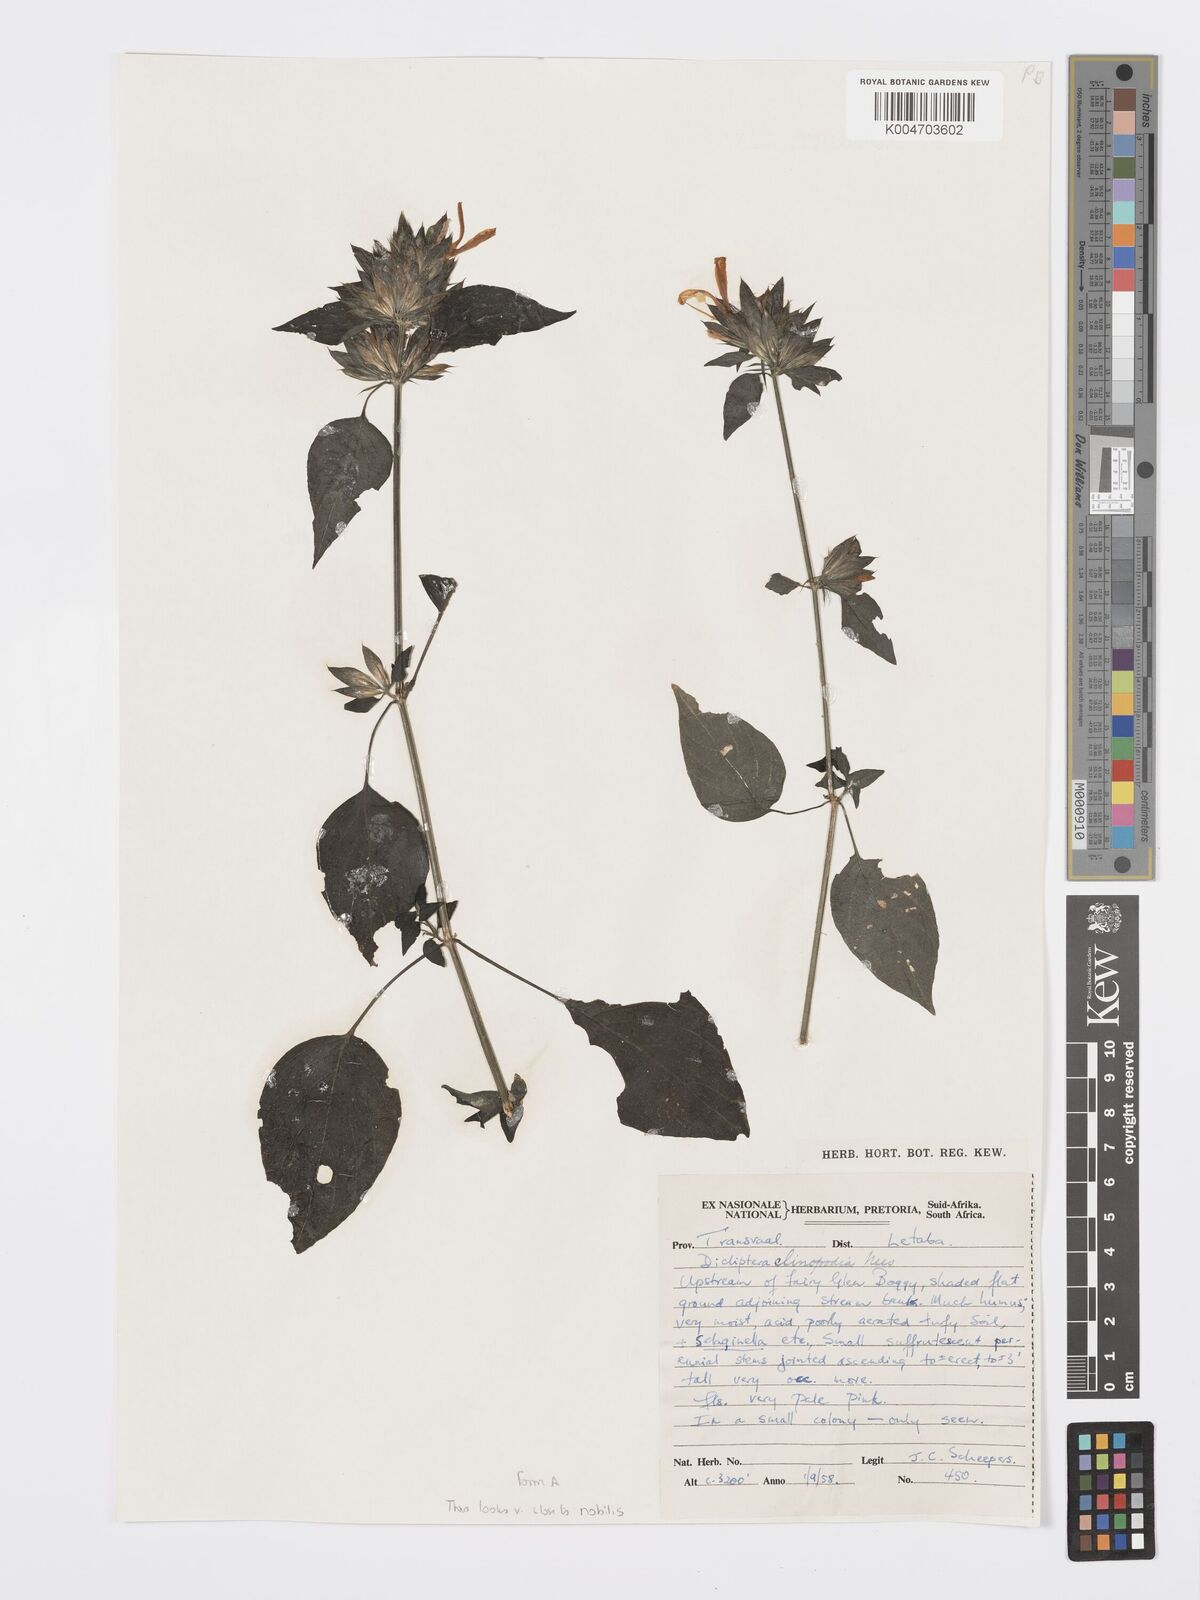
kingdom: Plantae
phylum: Tracheophyta
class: Magnoliopsida
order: Lamiales
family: Acanthaceae
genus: Dicliptera
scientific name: Dicliptera clinopodia
